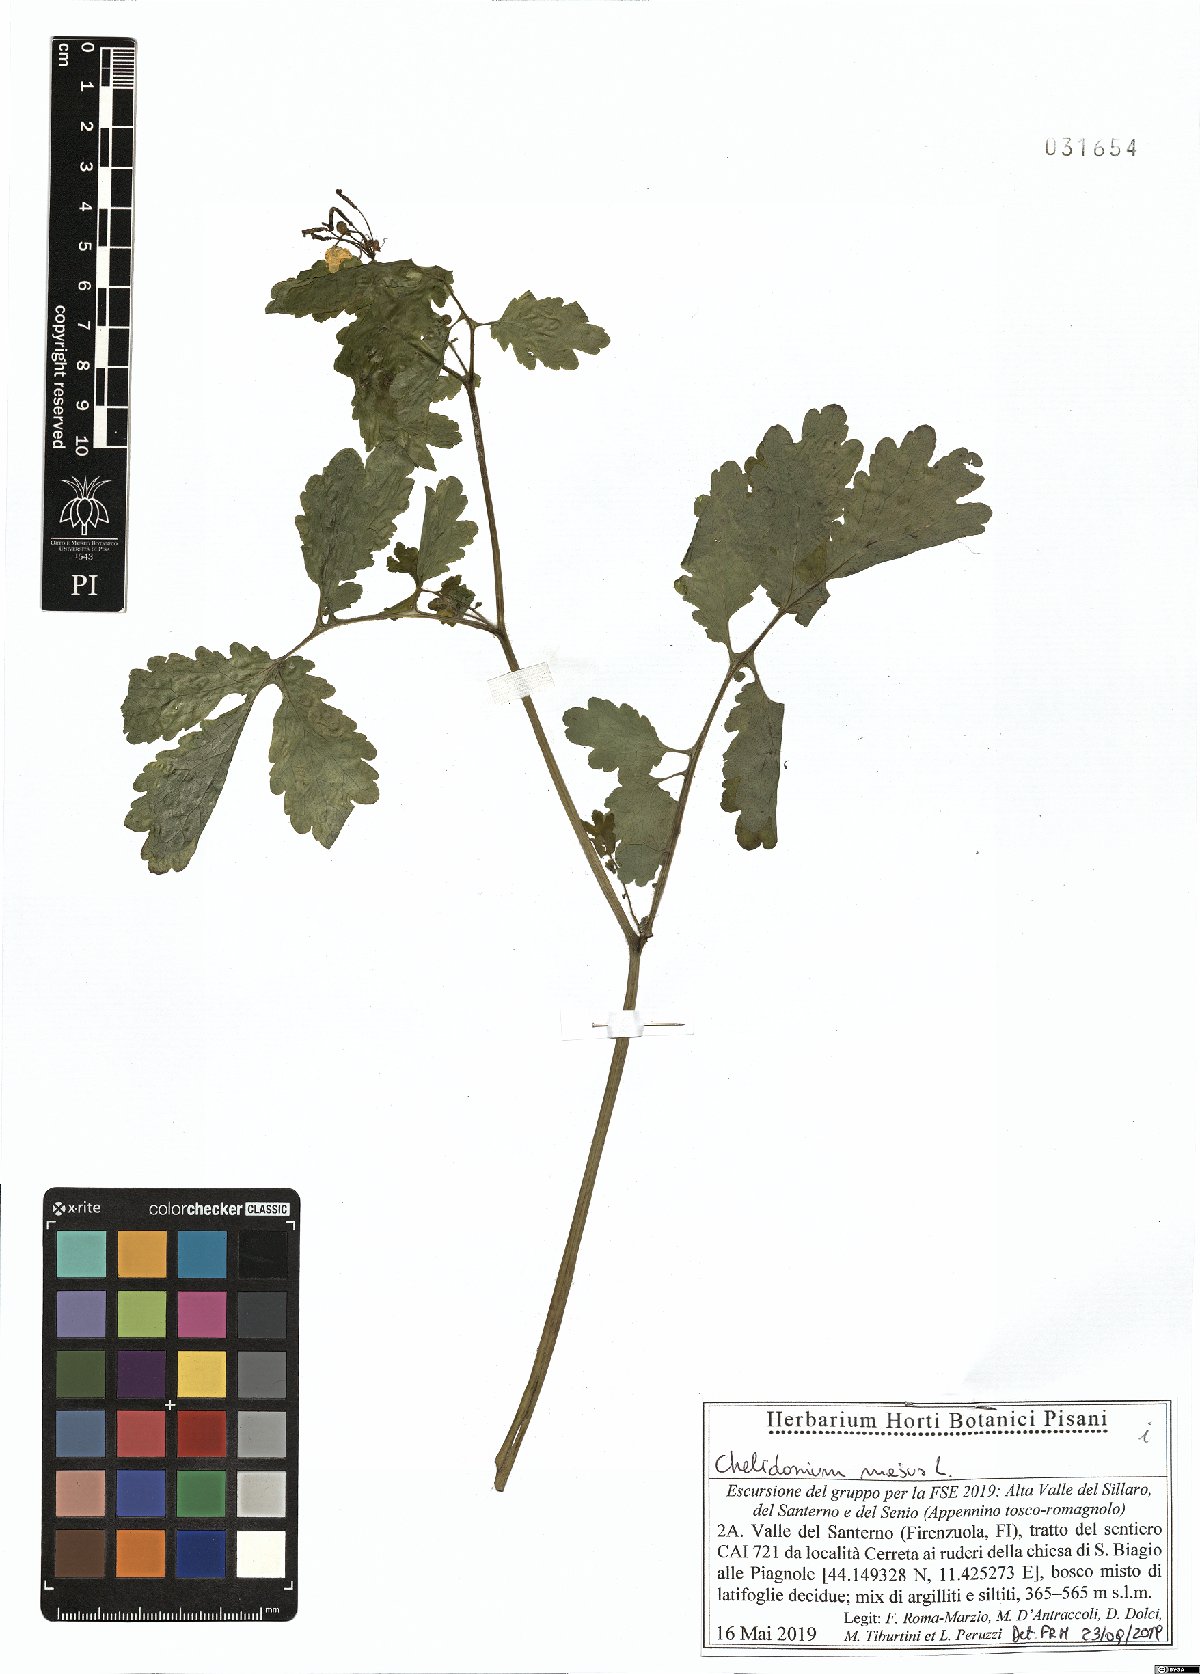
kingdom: Plantae
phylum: Tracheophyta
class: Magnoliopsida
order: Ranunculales
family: Papaveraceae
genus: Chelidonium
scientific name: Chelidonium majus
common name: Greater celandine
